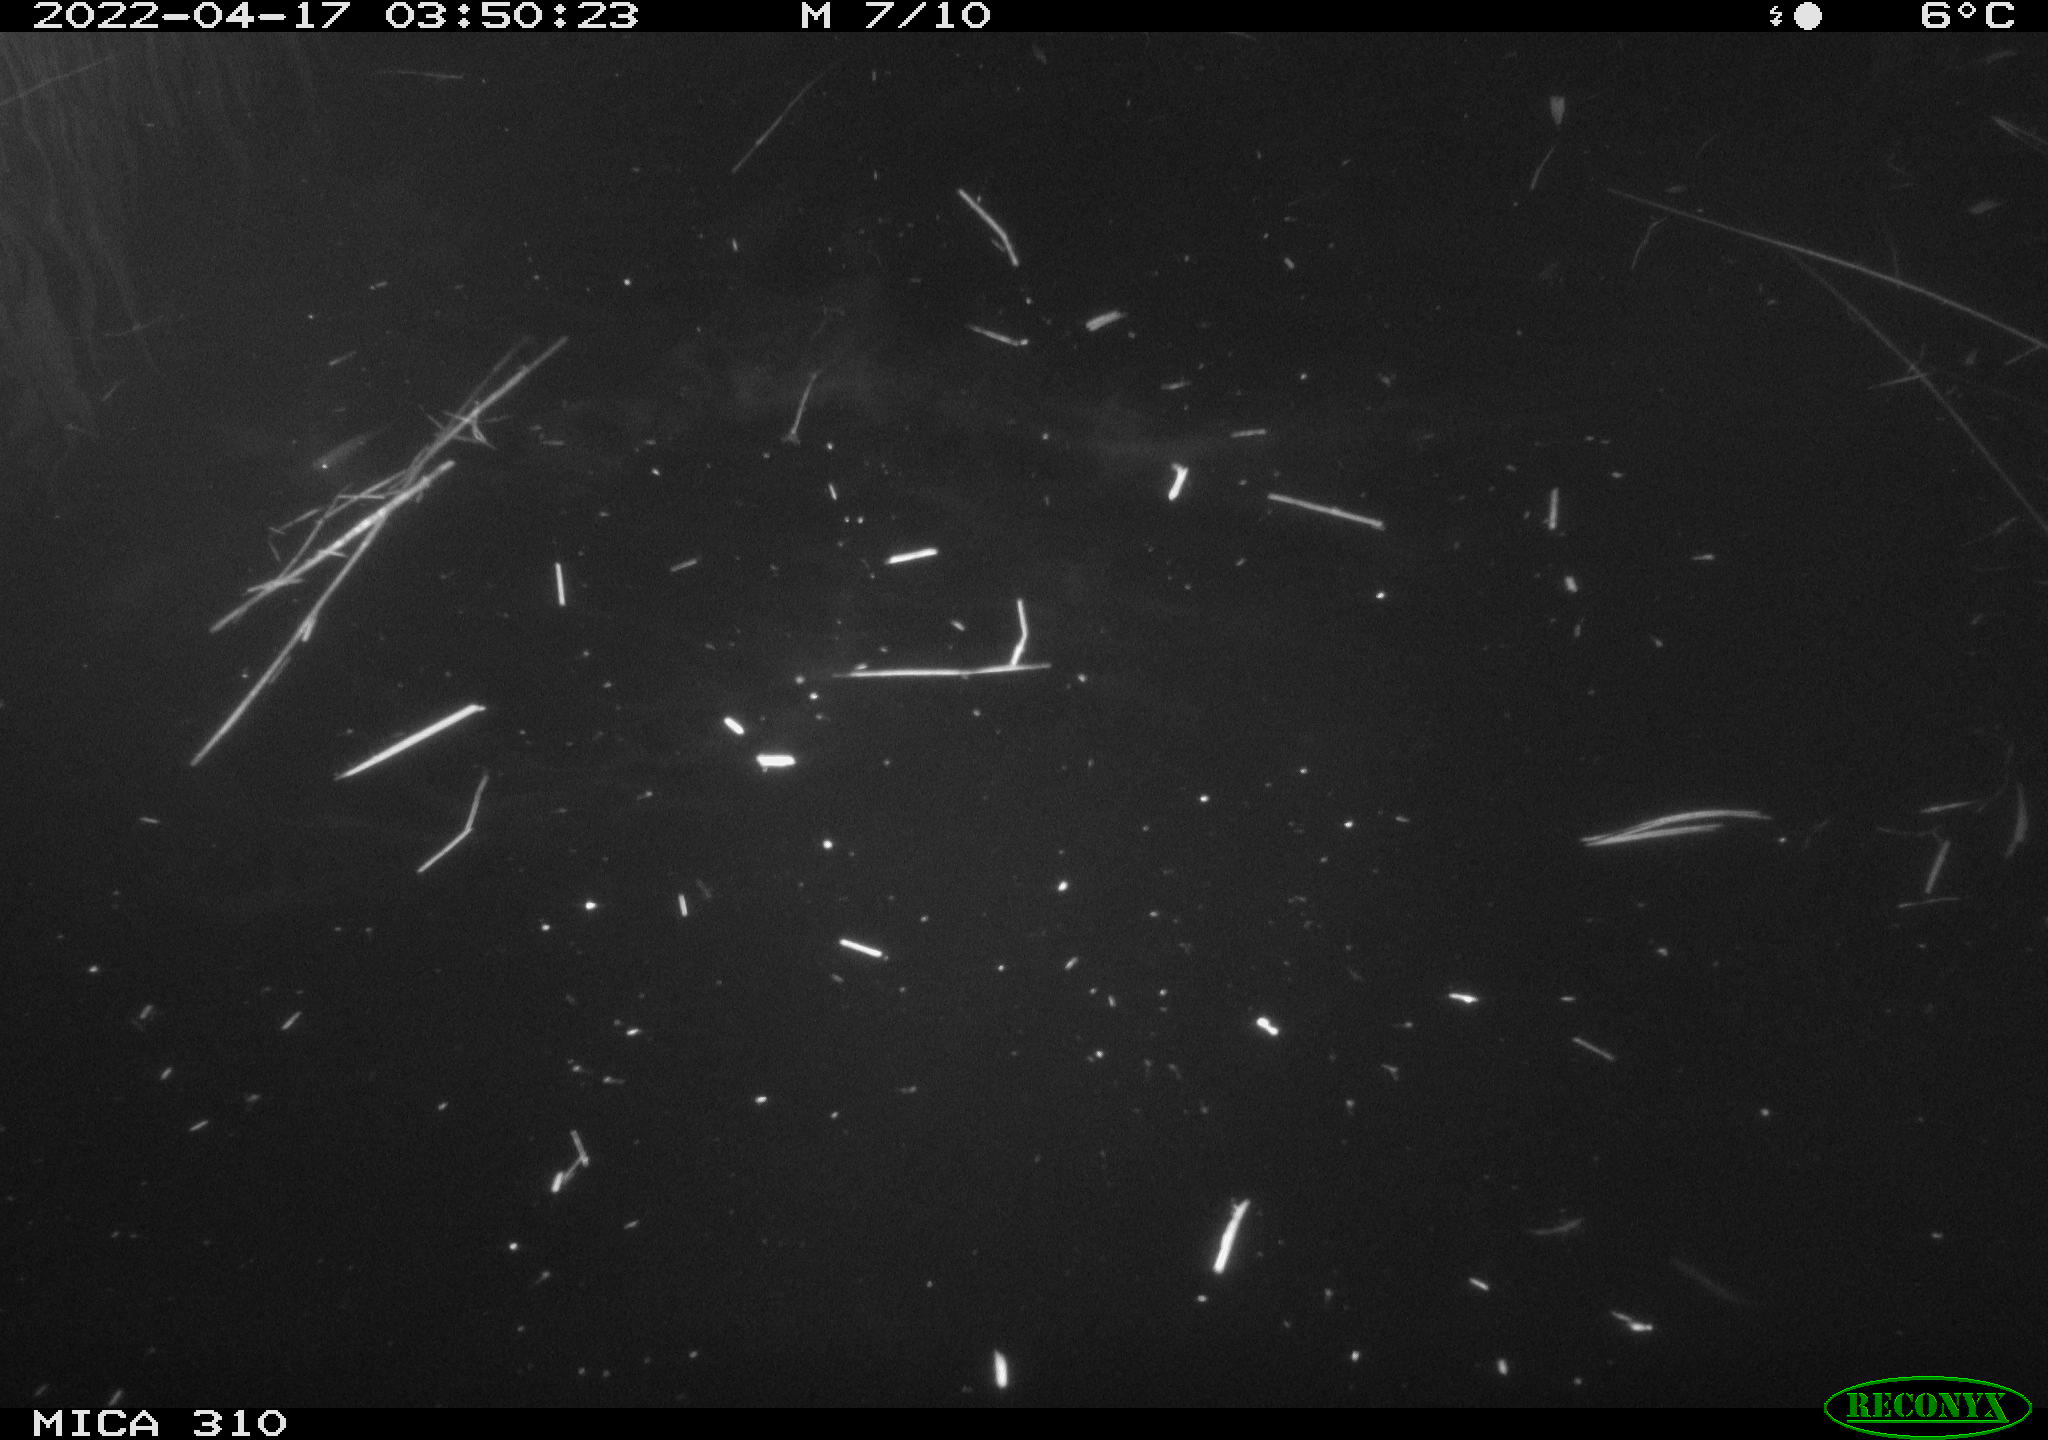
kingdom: Animalia
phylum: Chordata
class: Aves
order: Anseriformes
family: Anatidae
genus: Anas
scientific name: Anas platyrhynchos
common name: Mallard
